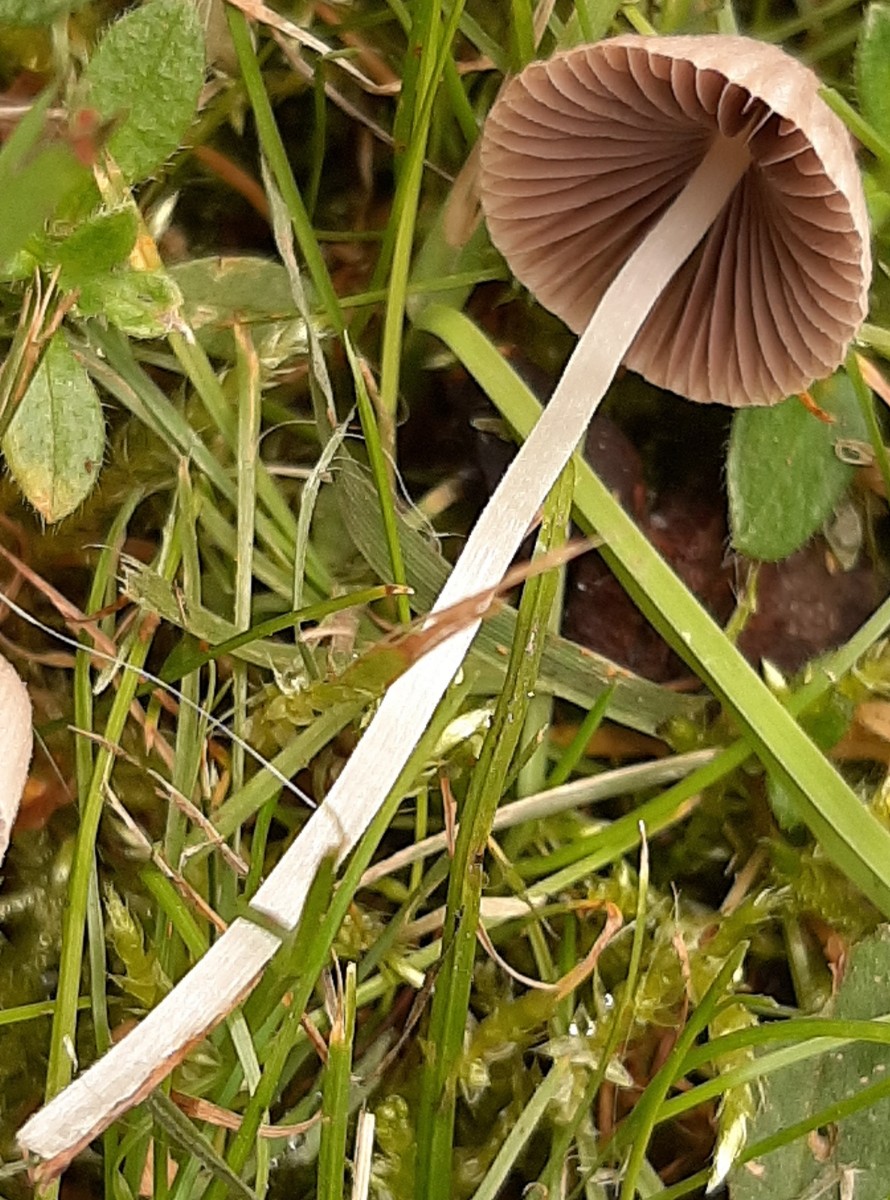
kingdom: Fungi
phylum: Basidiomycota
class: Agaricomycetes
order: Agaricales
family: Psathyrellaceae
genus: Coprinellus
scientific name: Coprinellus disseminatus
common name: bredsået blækhat
